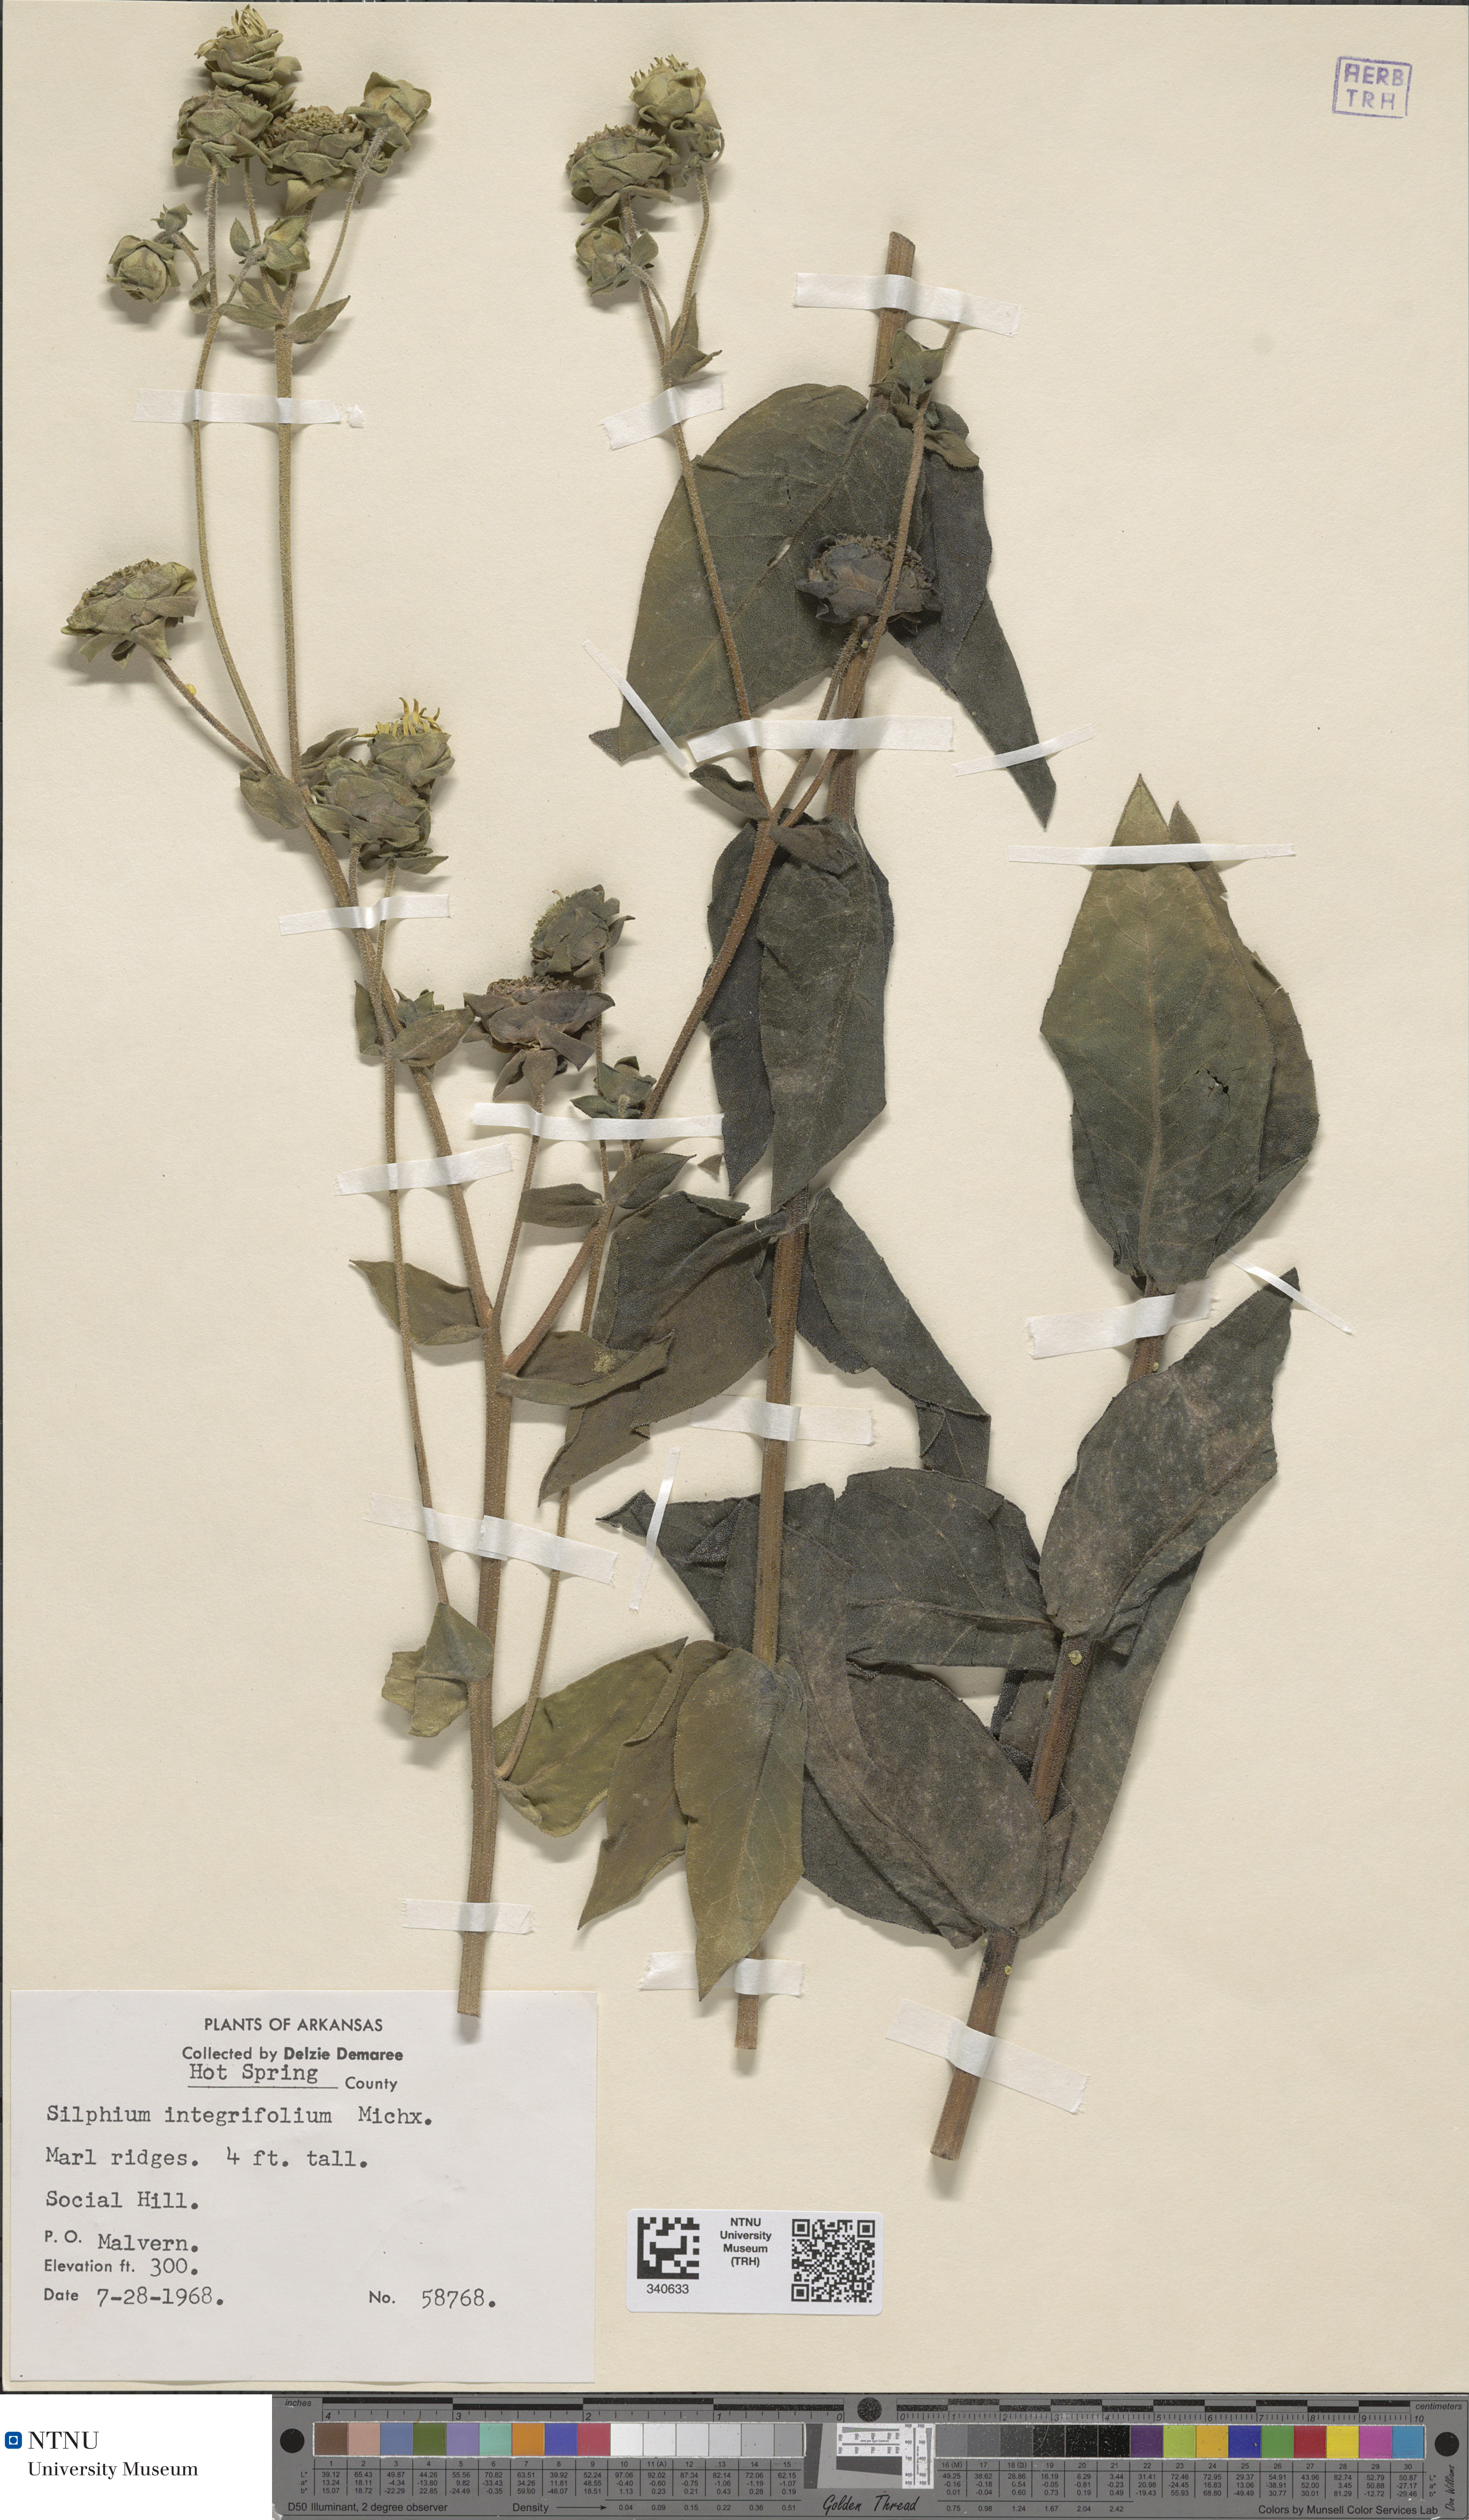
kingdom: Plantae
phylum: Tracheophyta
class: Magnoliopsida
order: Asterales
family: Asteraceae
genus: Silphium
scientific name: Silphium integrifolium
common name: Whole-leaf rosinweed
